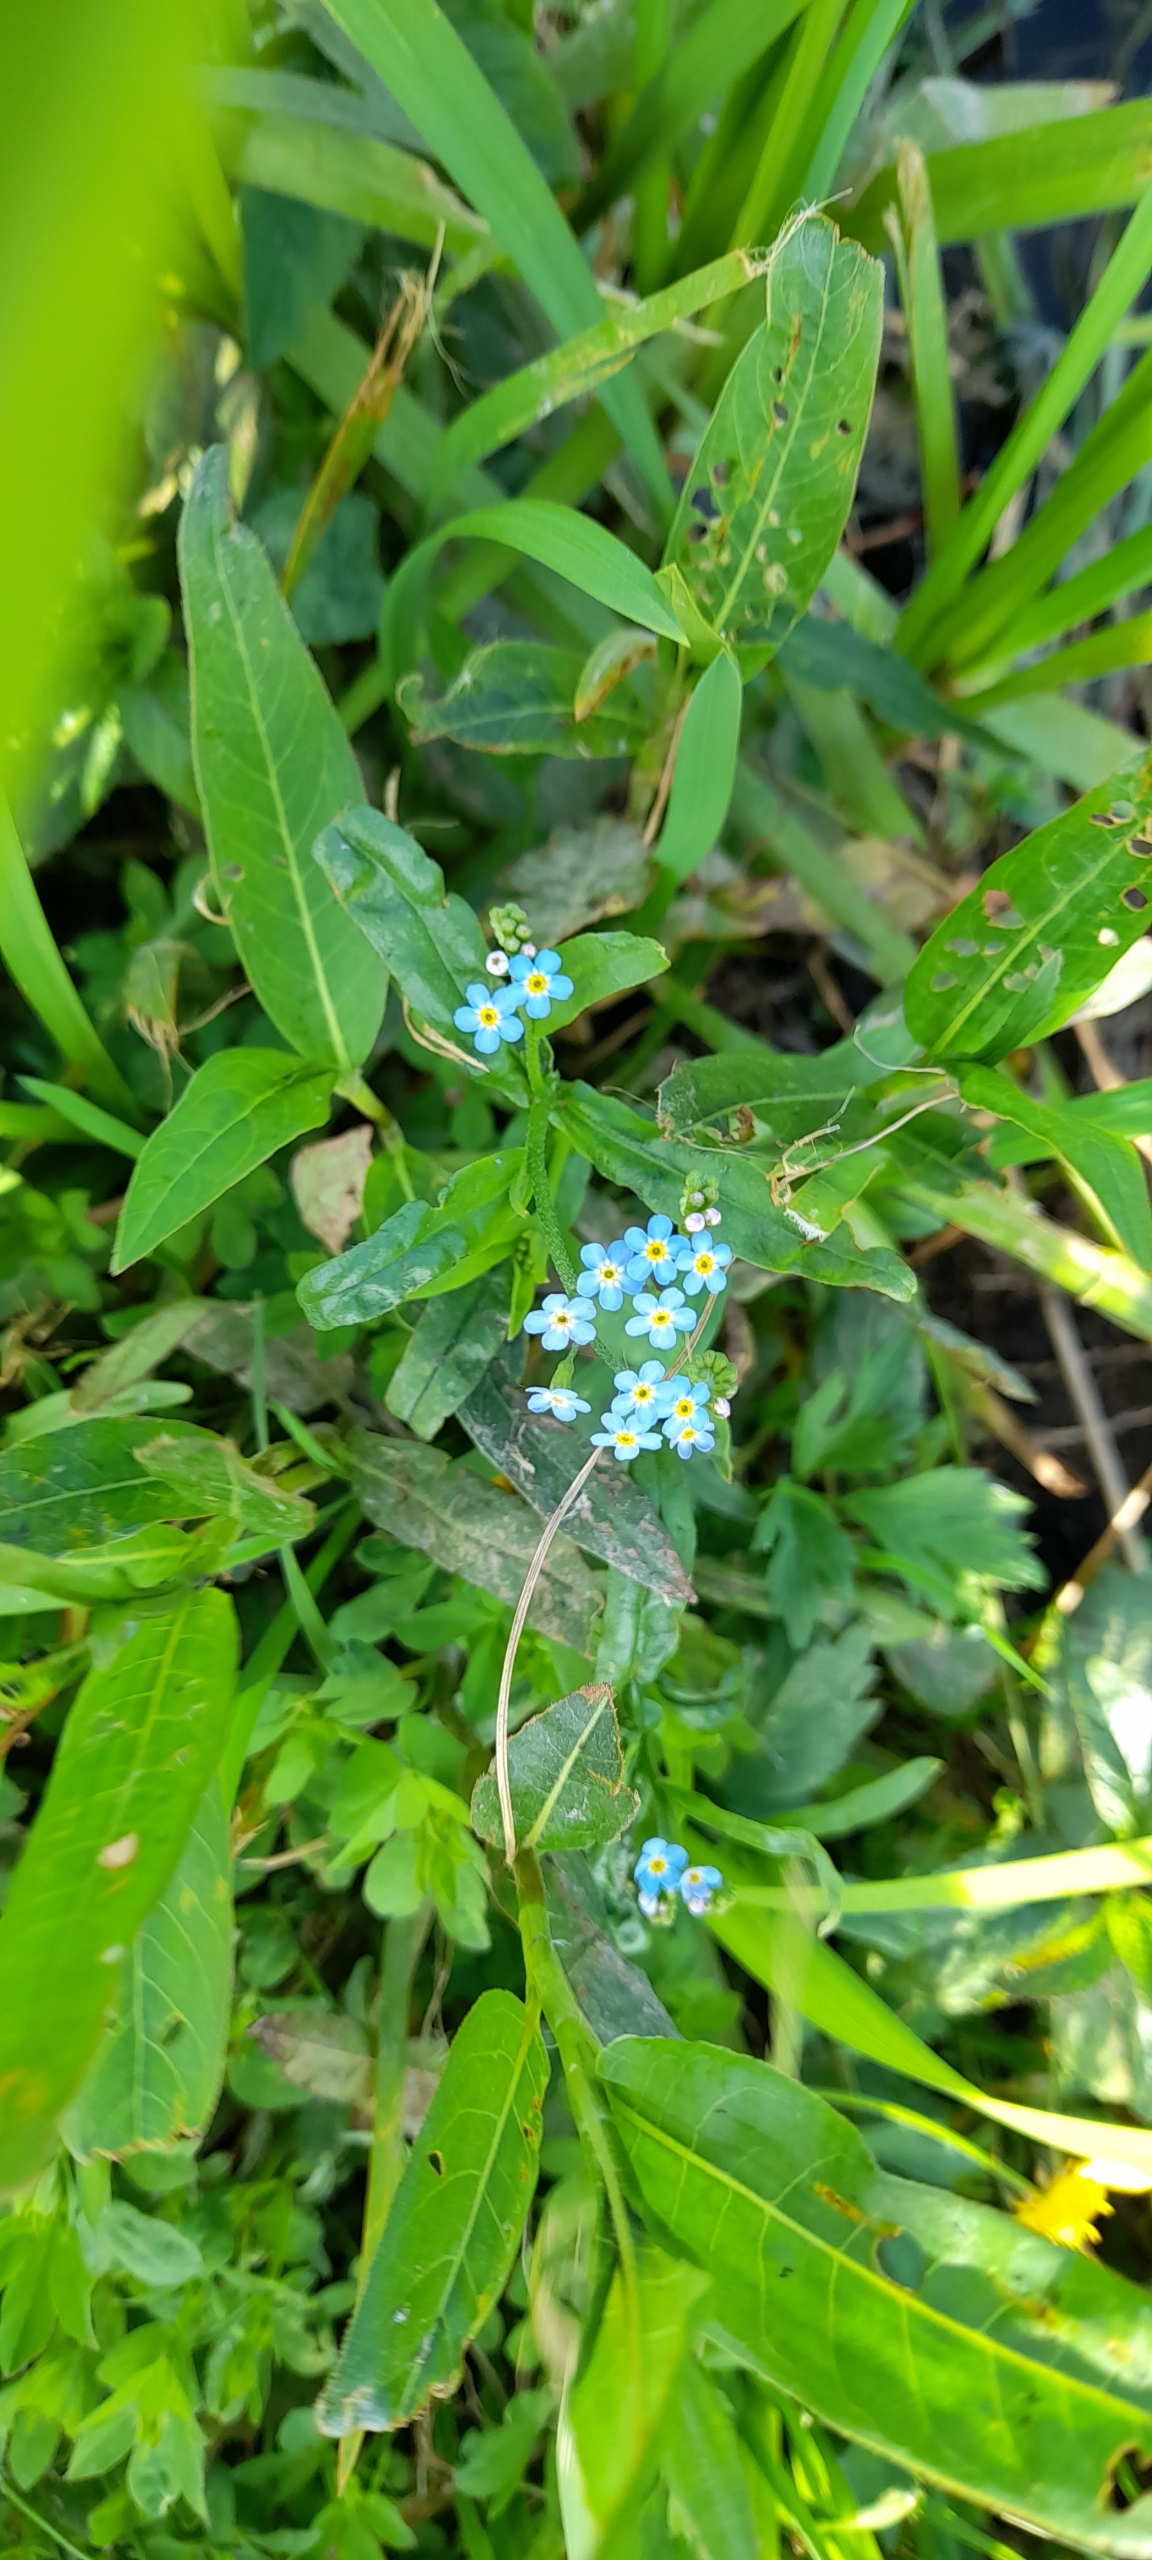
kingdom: Plantae
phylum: Tracheophyta
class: Magnoliopsida
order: Boraginales
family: Boraginaceae
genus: Myosotis
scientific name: Myosotis scorpioides
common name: Eng-forglemmigej
